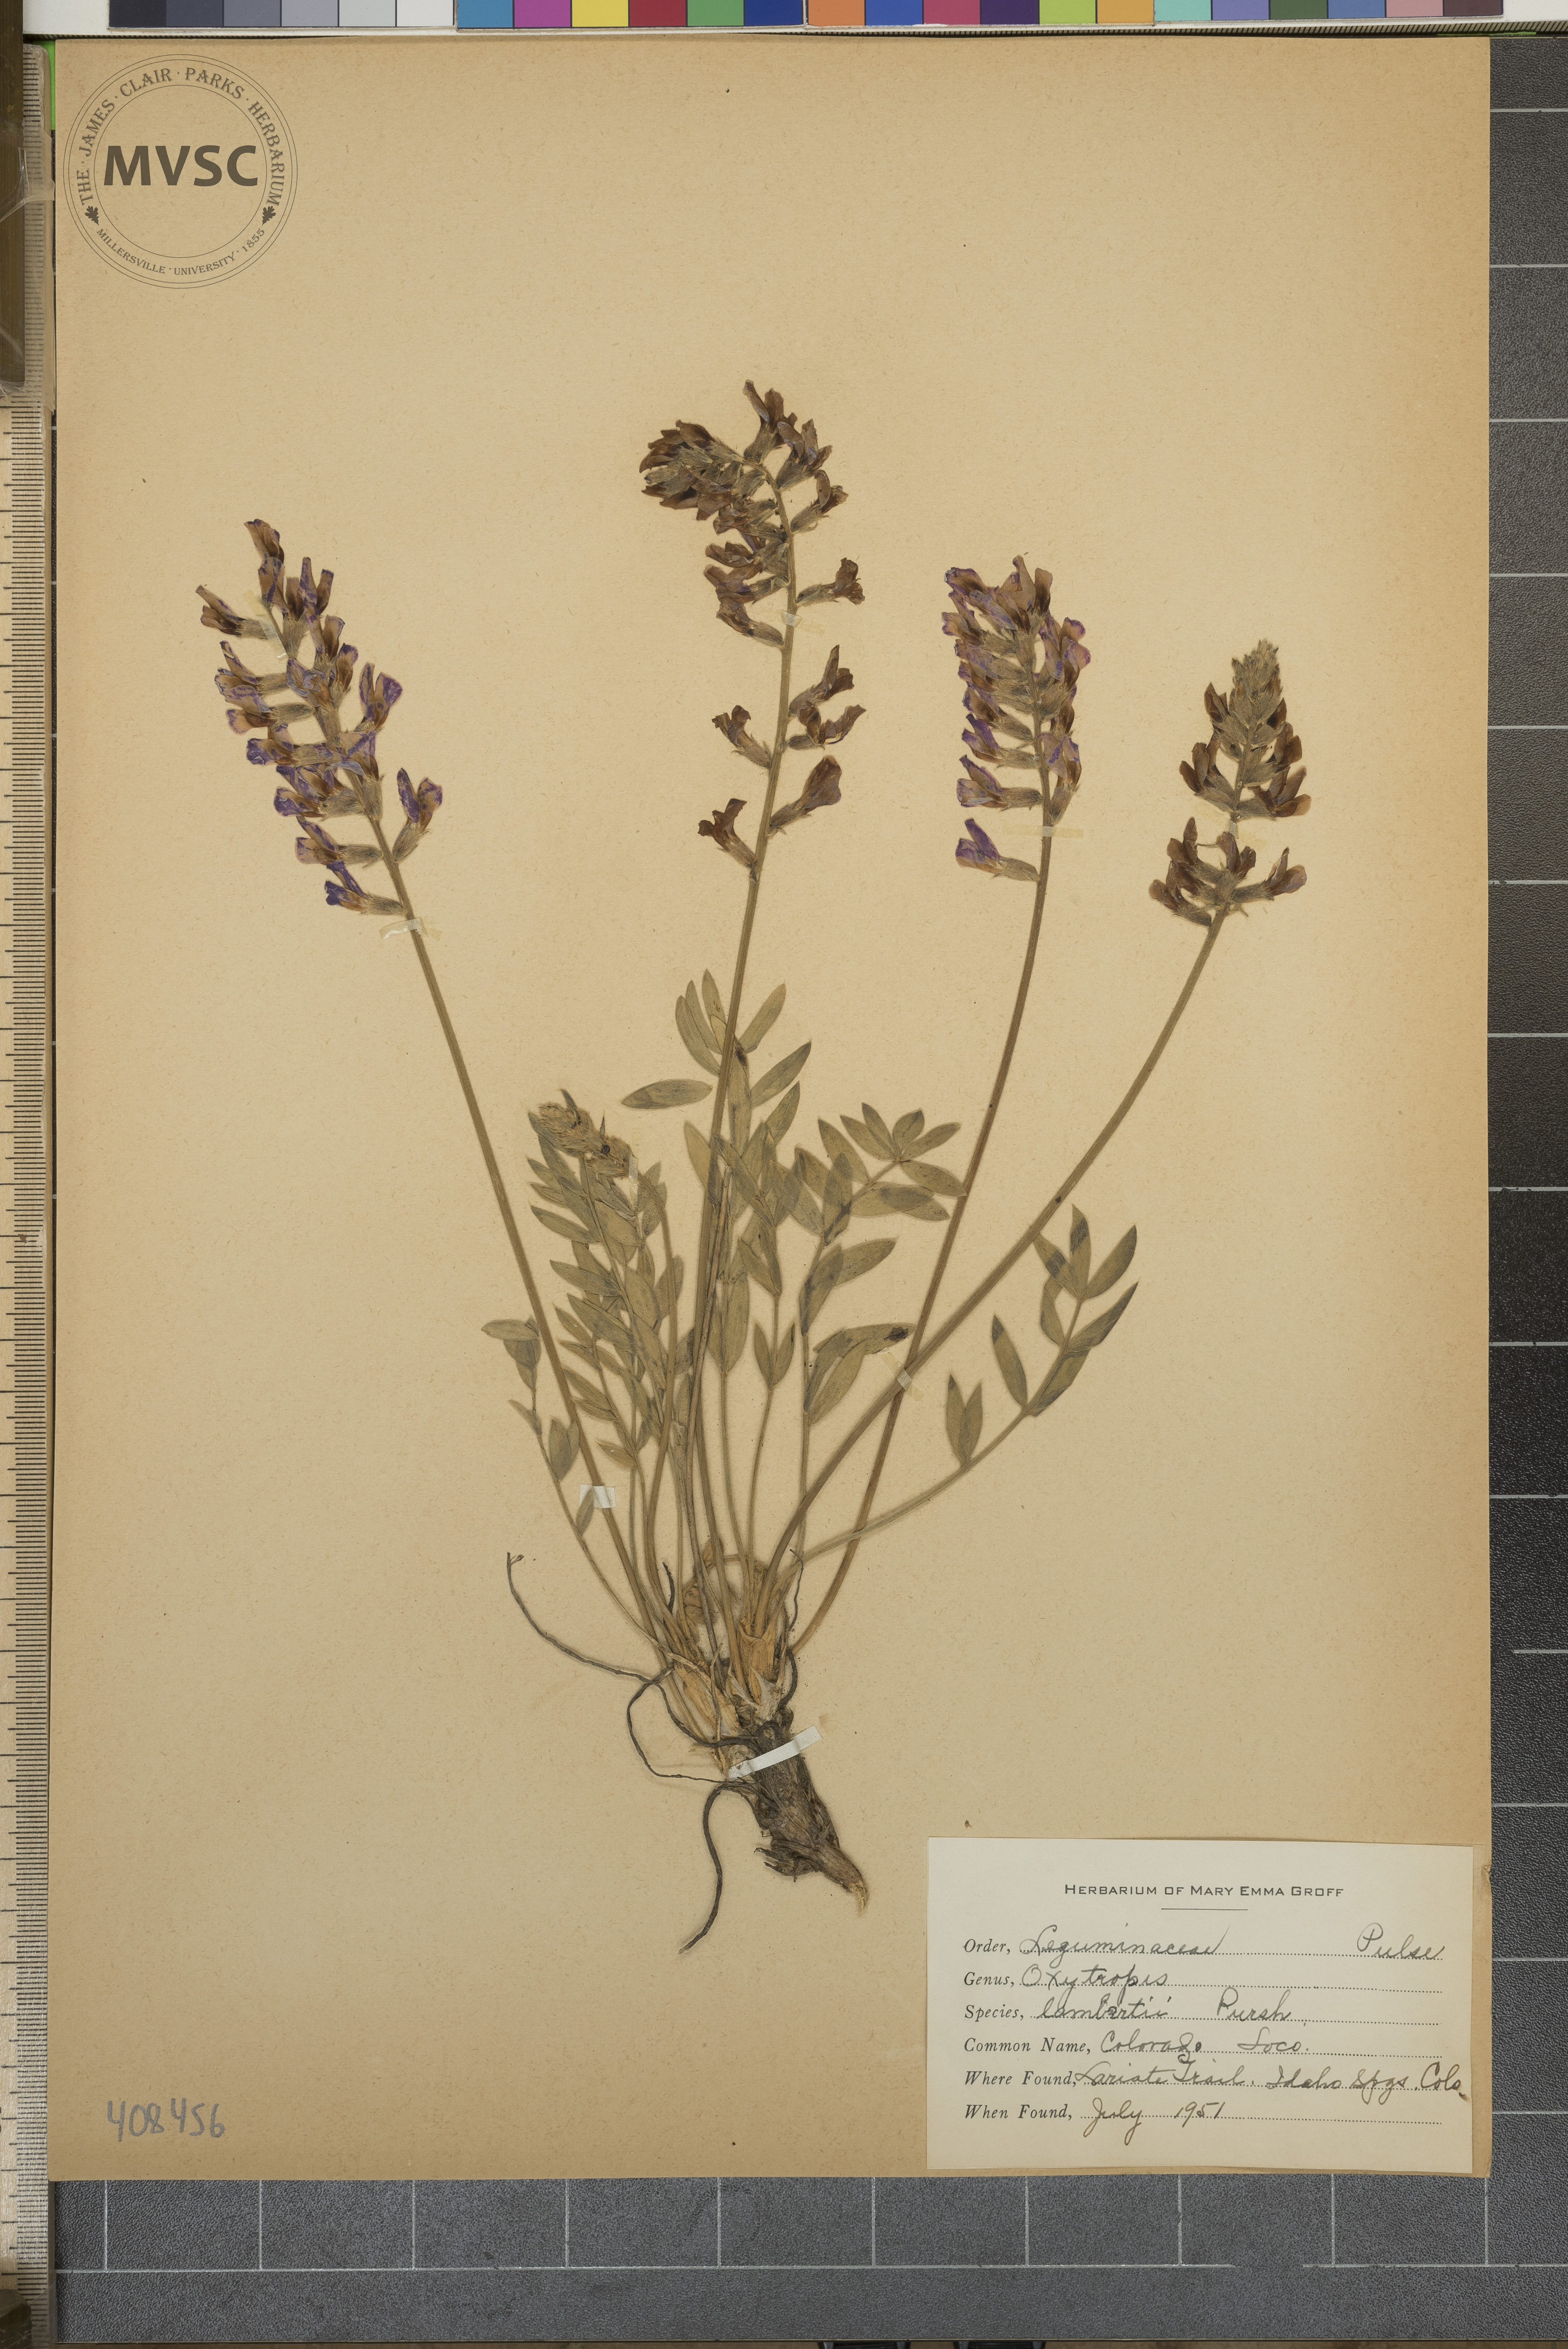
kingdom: Plantae
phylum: Tracheophyta
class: Magnoliopsida
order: Fabales
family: Fabaceae
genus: Oxytropis
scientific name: Oxytropis lambertii
